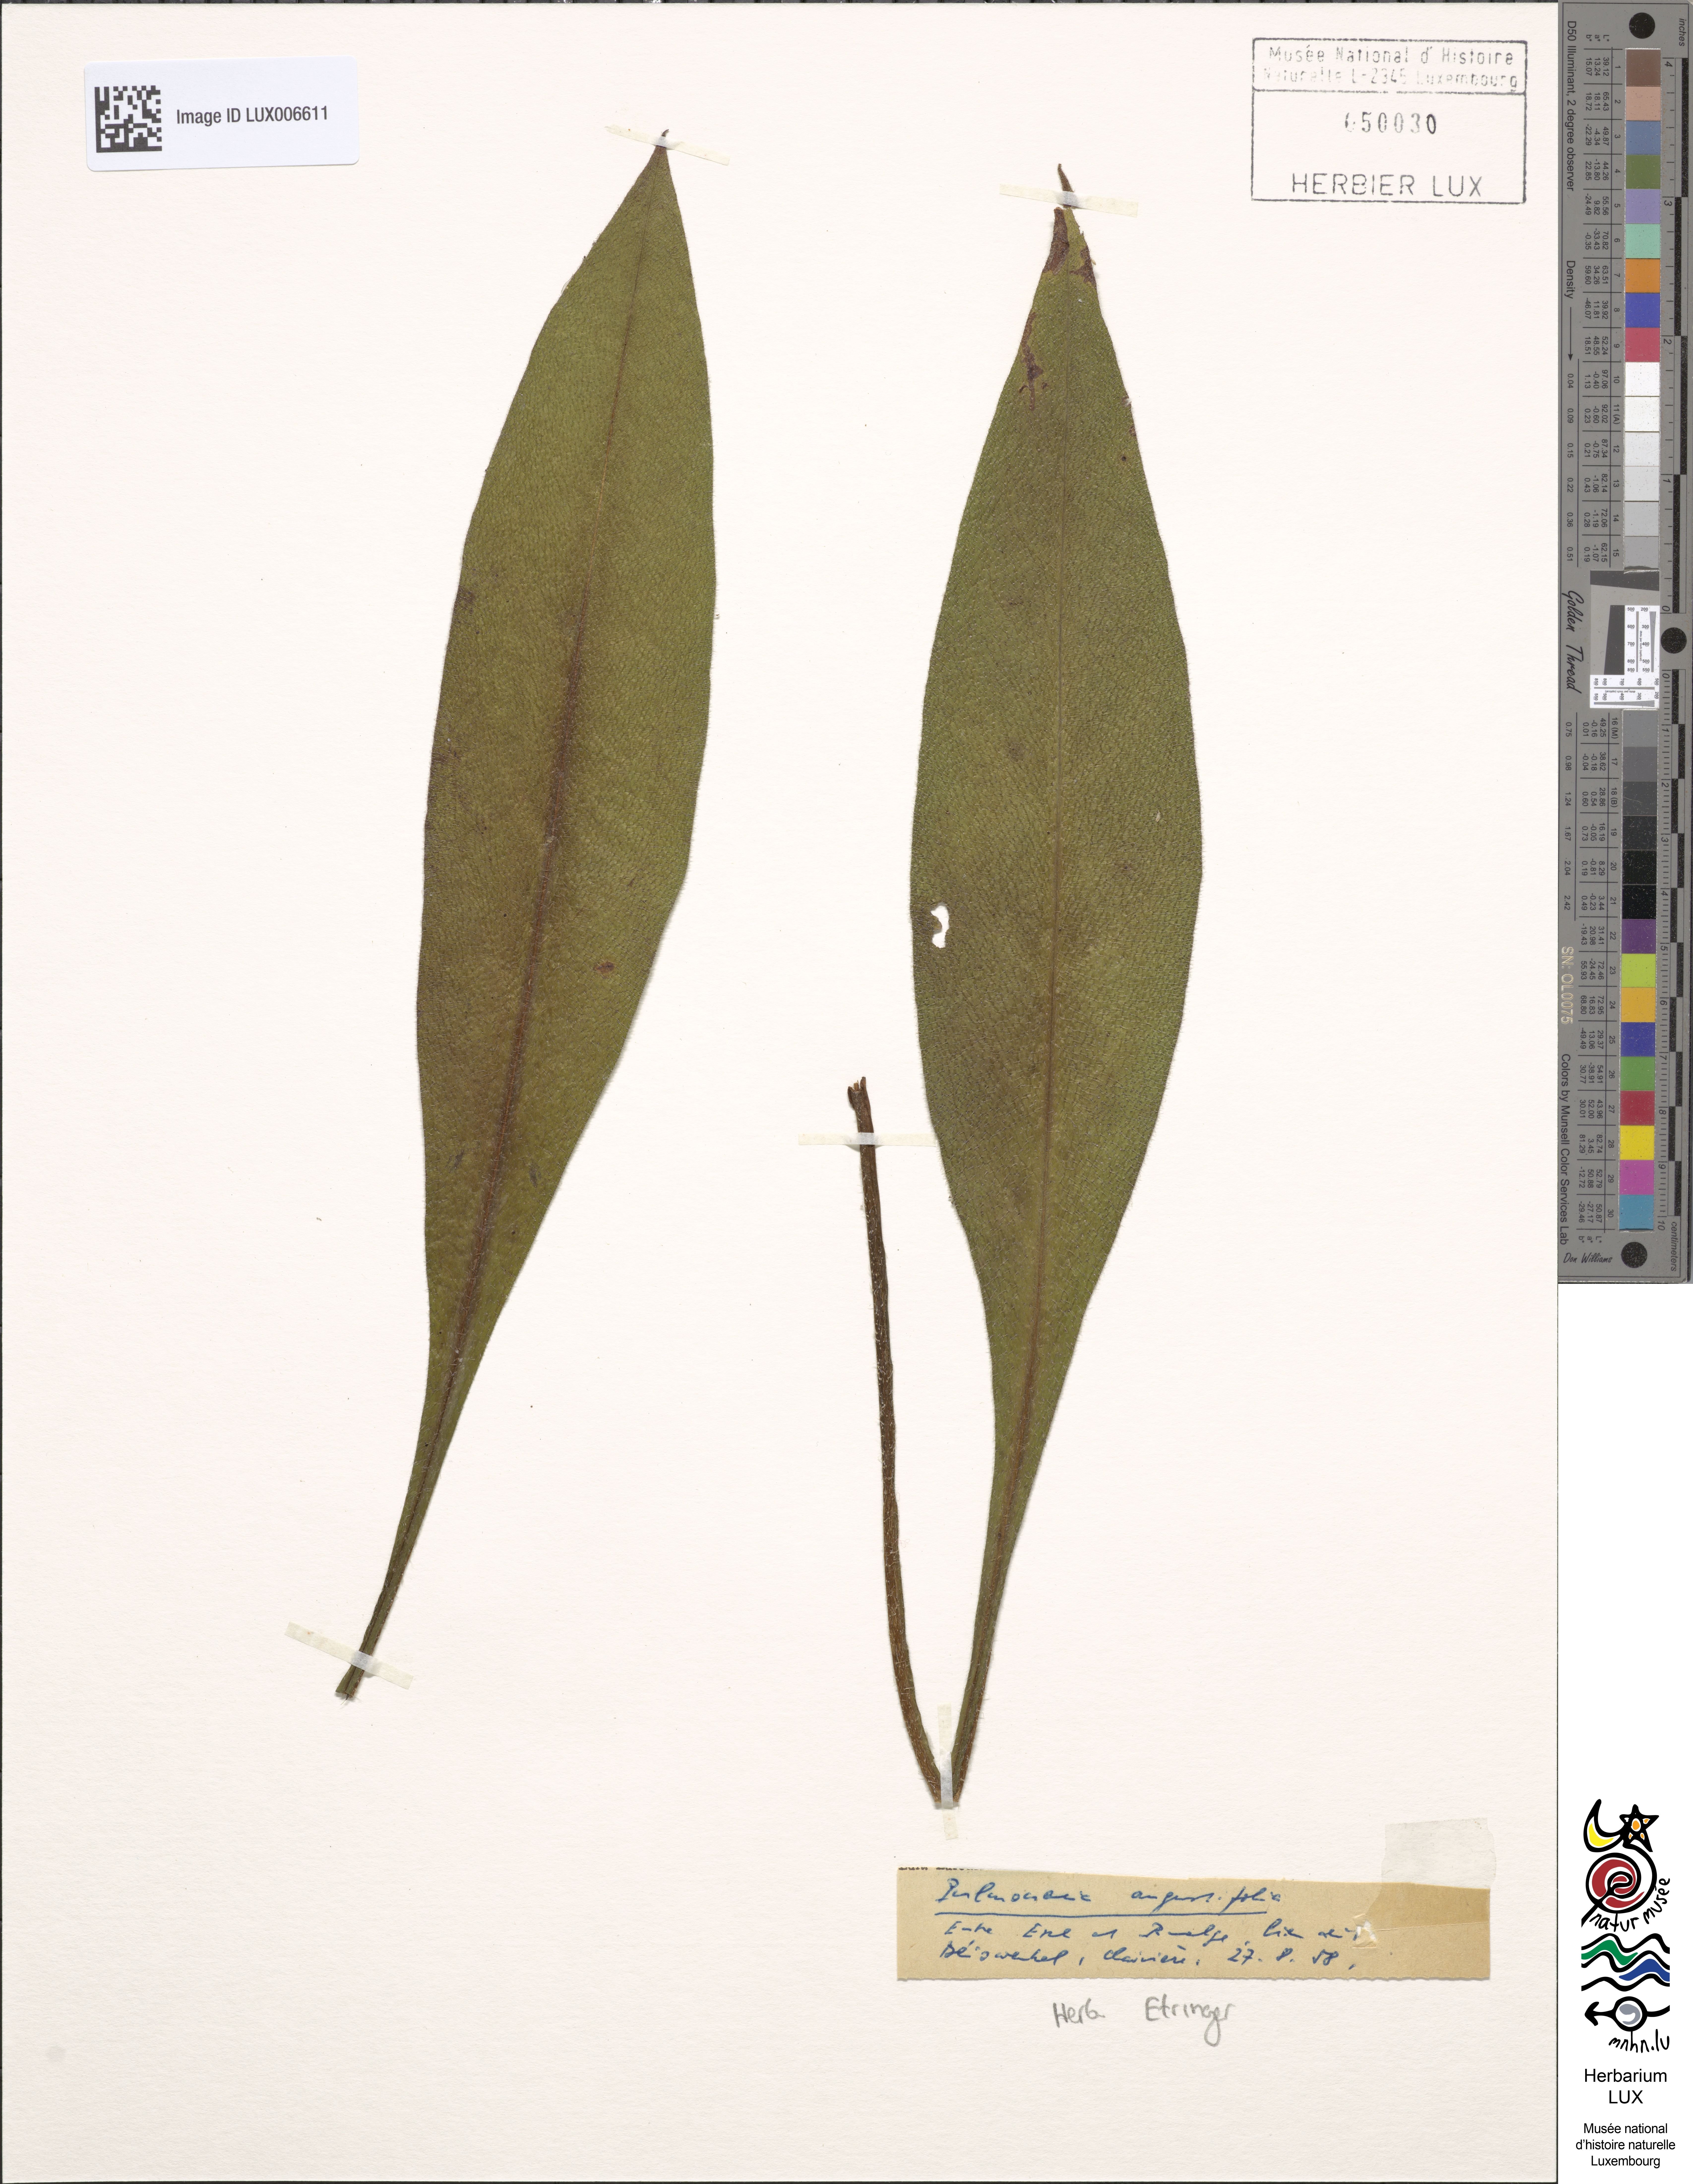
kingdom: Plantae
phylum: Tracheophyta
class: Magnoliopsida
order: Boraginales
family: Boraginaceae
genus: Pulmonaria
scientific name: Pulmonaria angustifolia
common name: Blue cowslip
